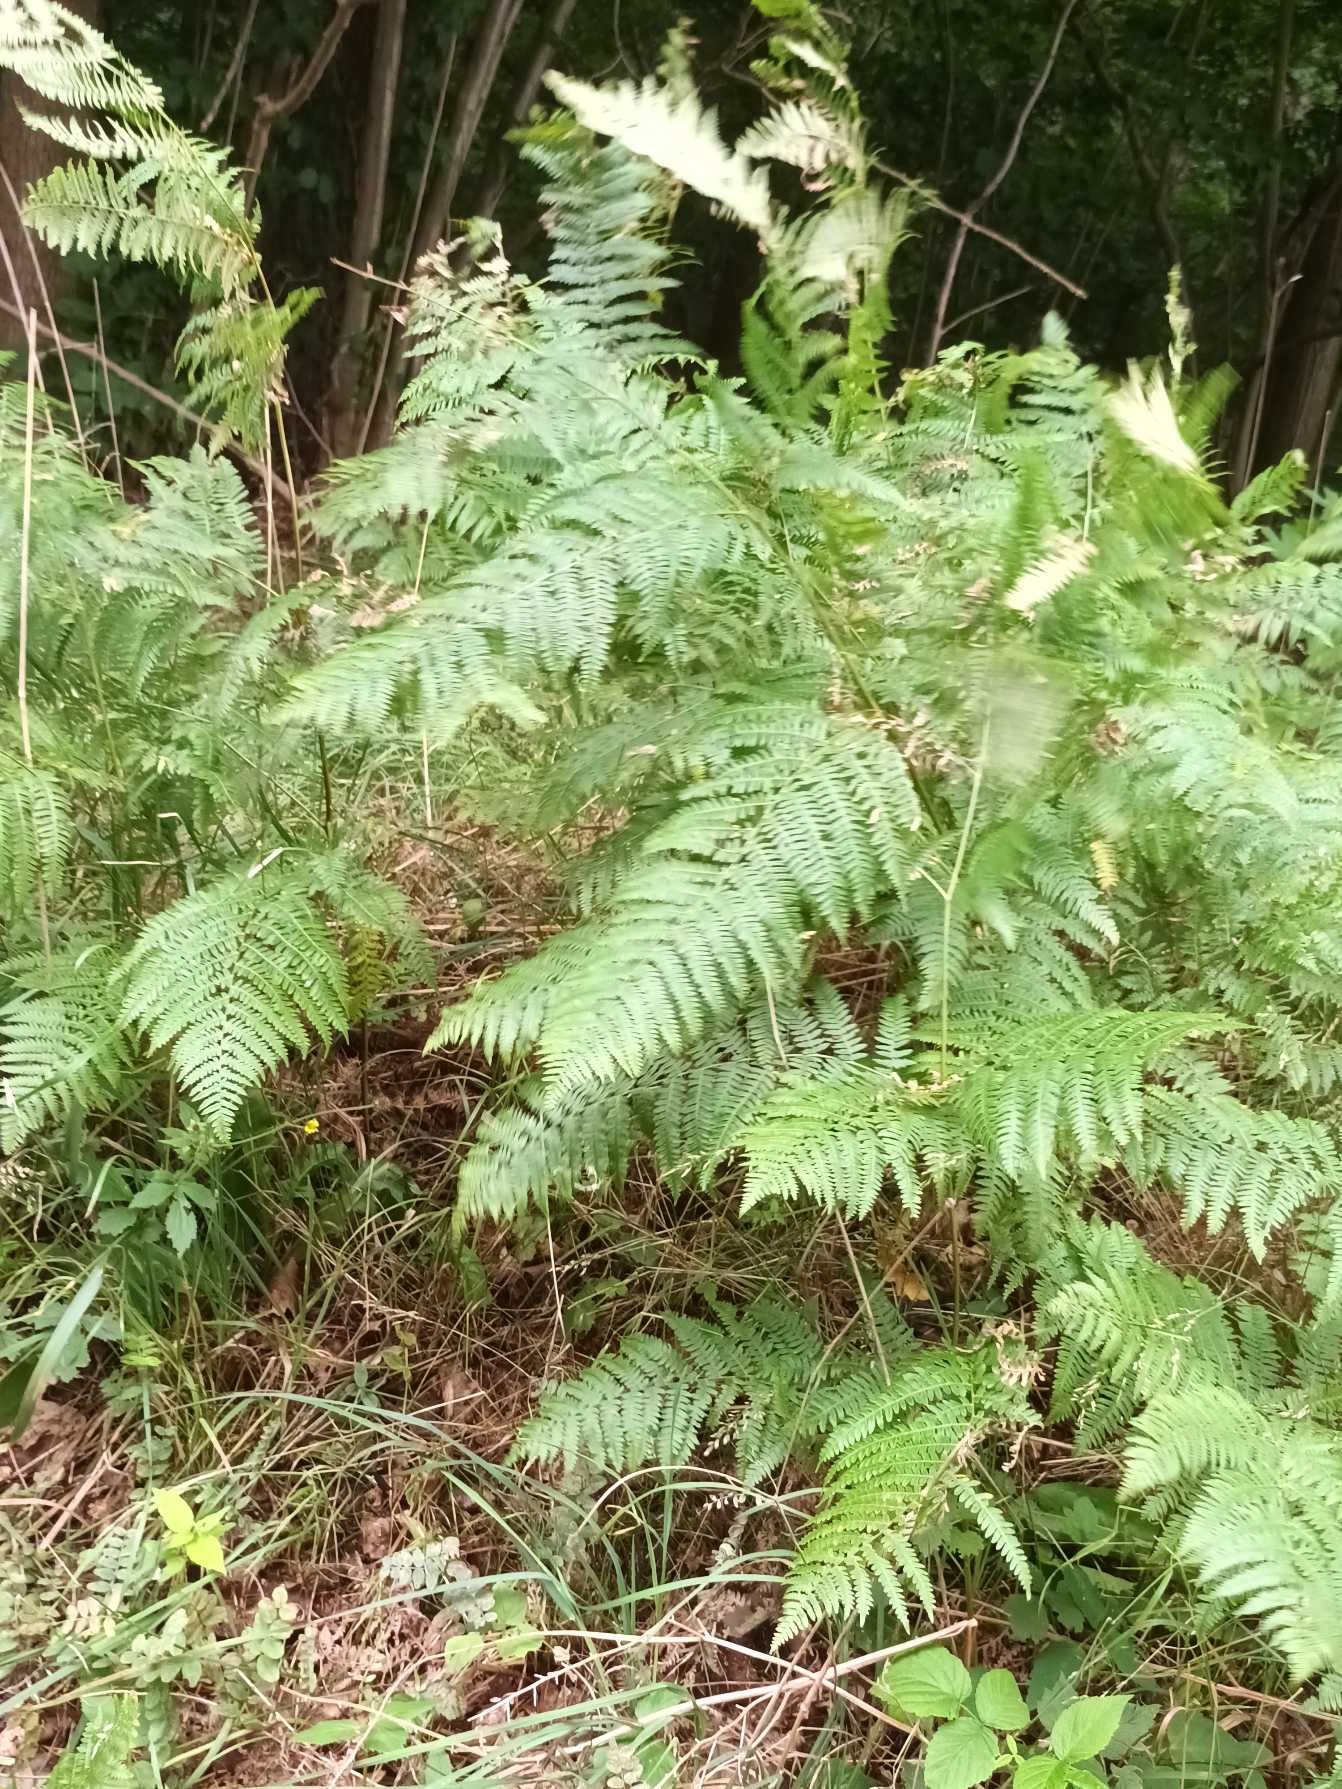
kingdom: Plantae
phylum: Tracheophyta
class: Polypodiopsida
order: Polypodiales
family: Dennstaedtiaceae
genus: Pteridium
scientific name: Pteridium aquilinum
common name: Ørnebregne
